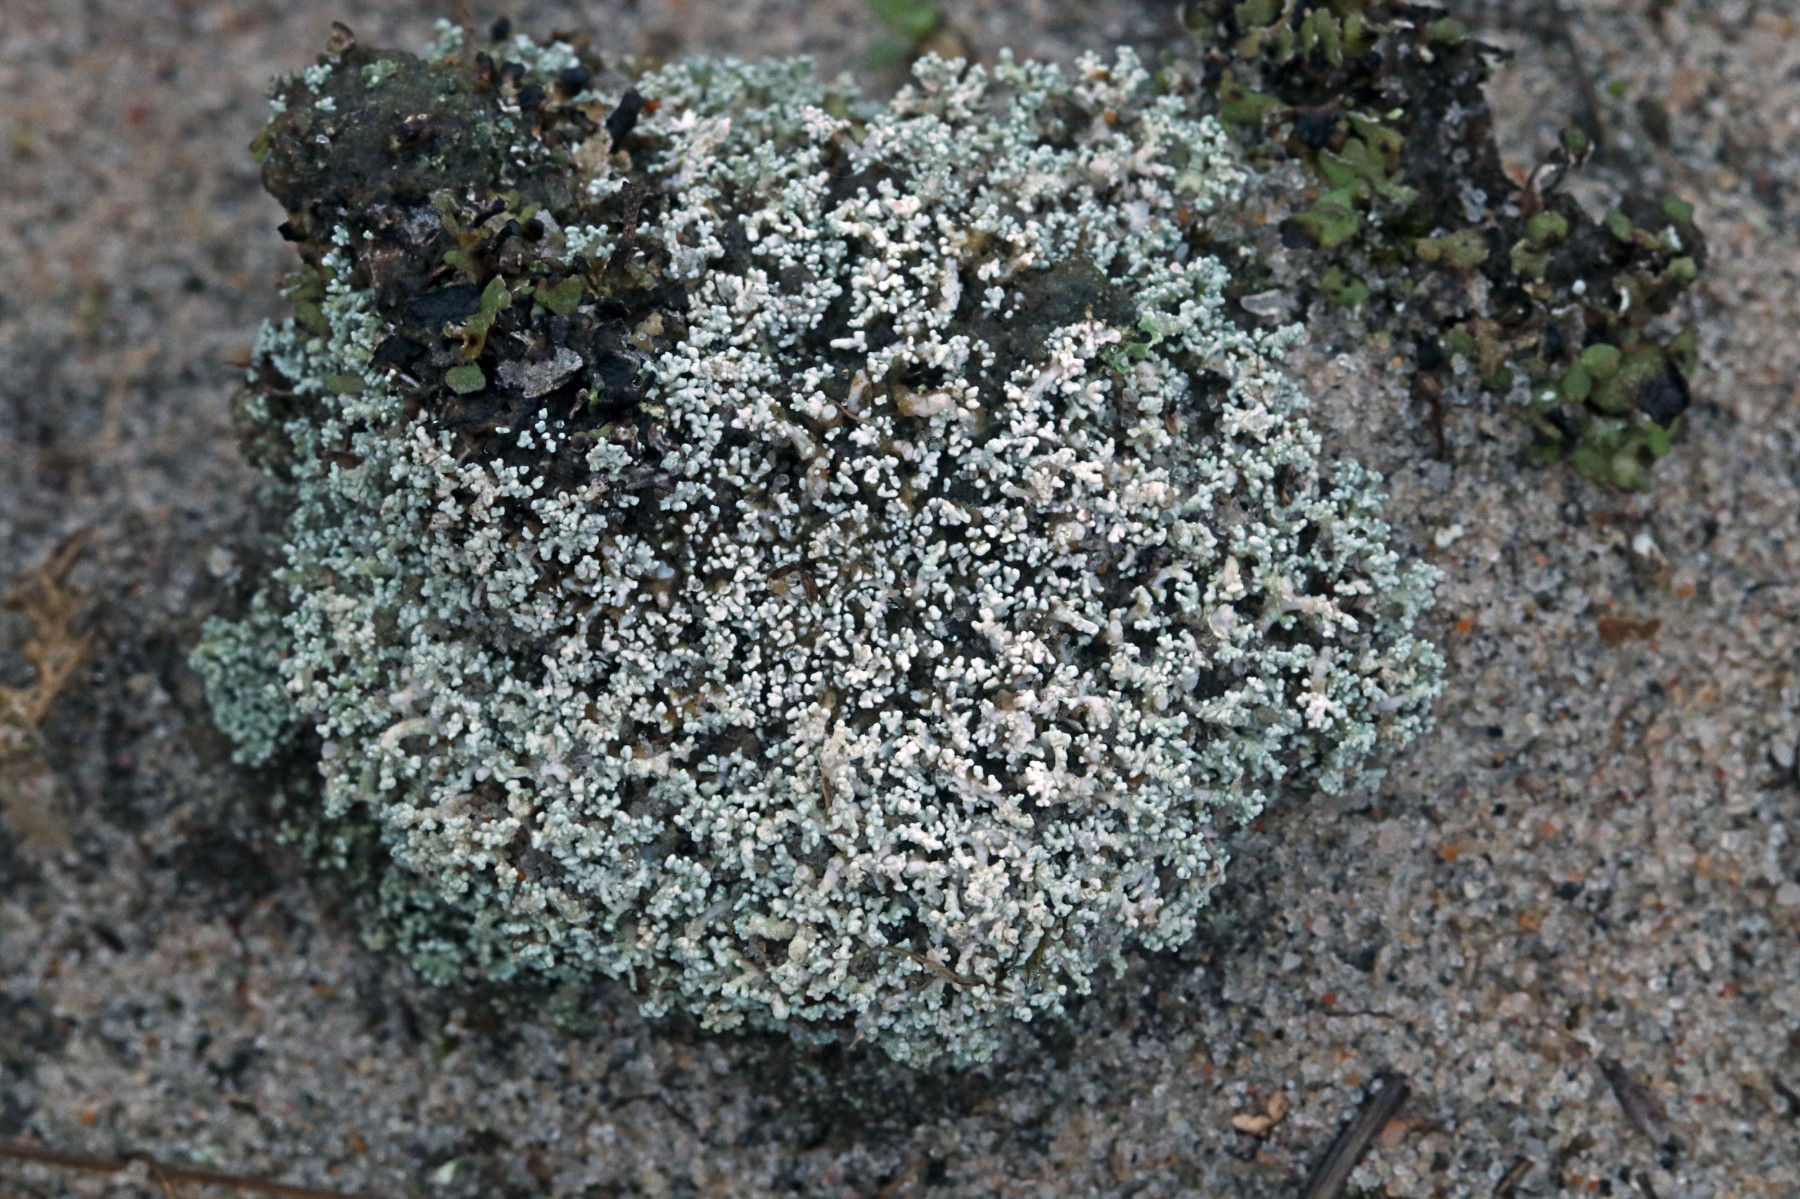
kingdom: Fungi
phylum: Ascomycota
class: Lecanoromycetes
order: Lecanorales
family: Stereocaulaceae
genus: Stereocaulon
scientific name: Stereocaulon condensatum
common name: lav korallav
